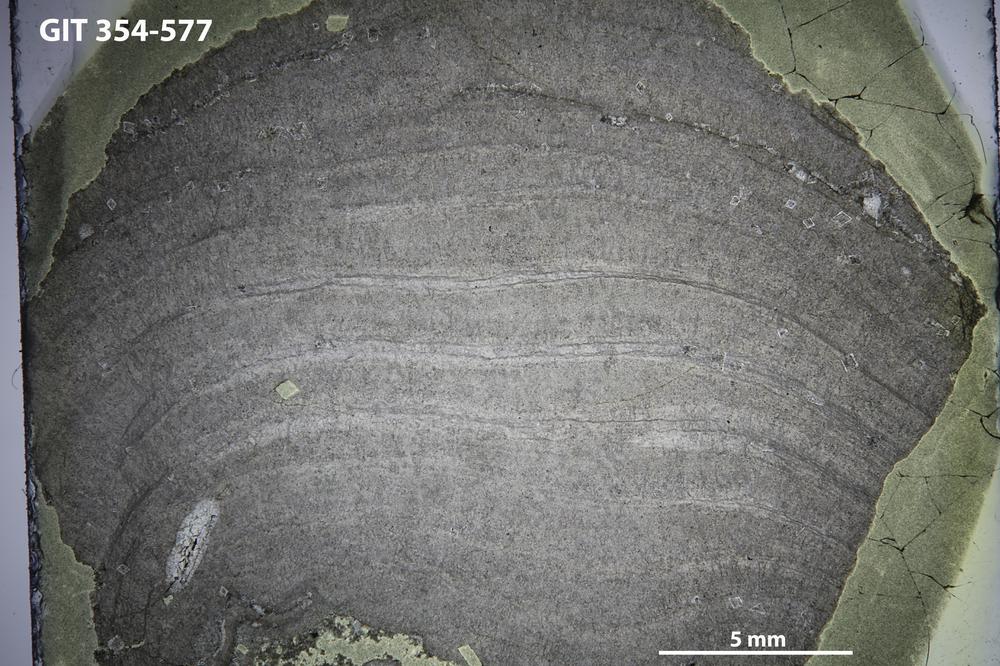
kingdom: Animalia
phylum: Porifera
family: Densastromatidae
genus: Densastroma
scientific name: Densastroma Actinostroma pexisum
